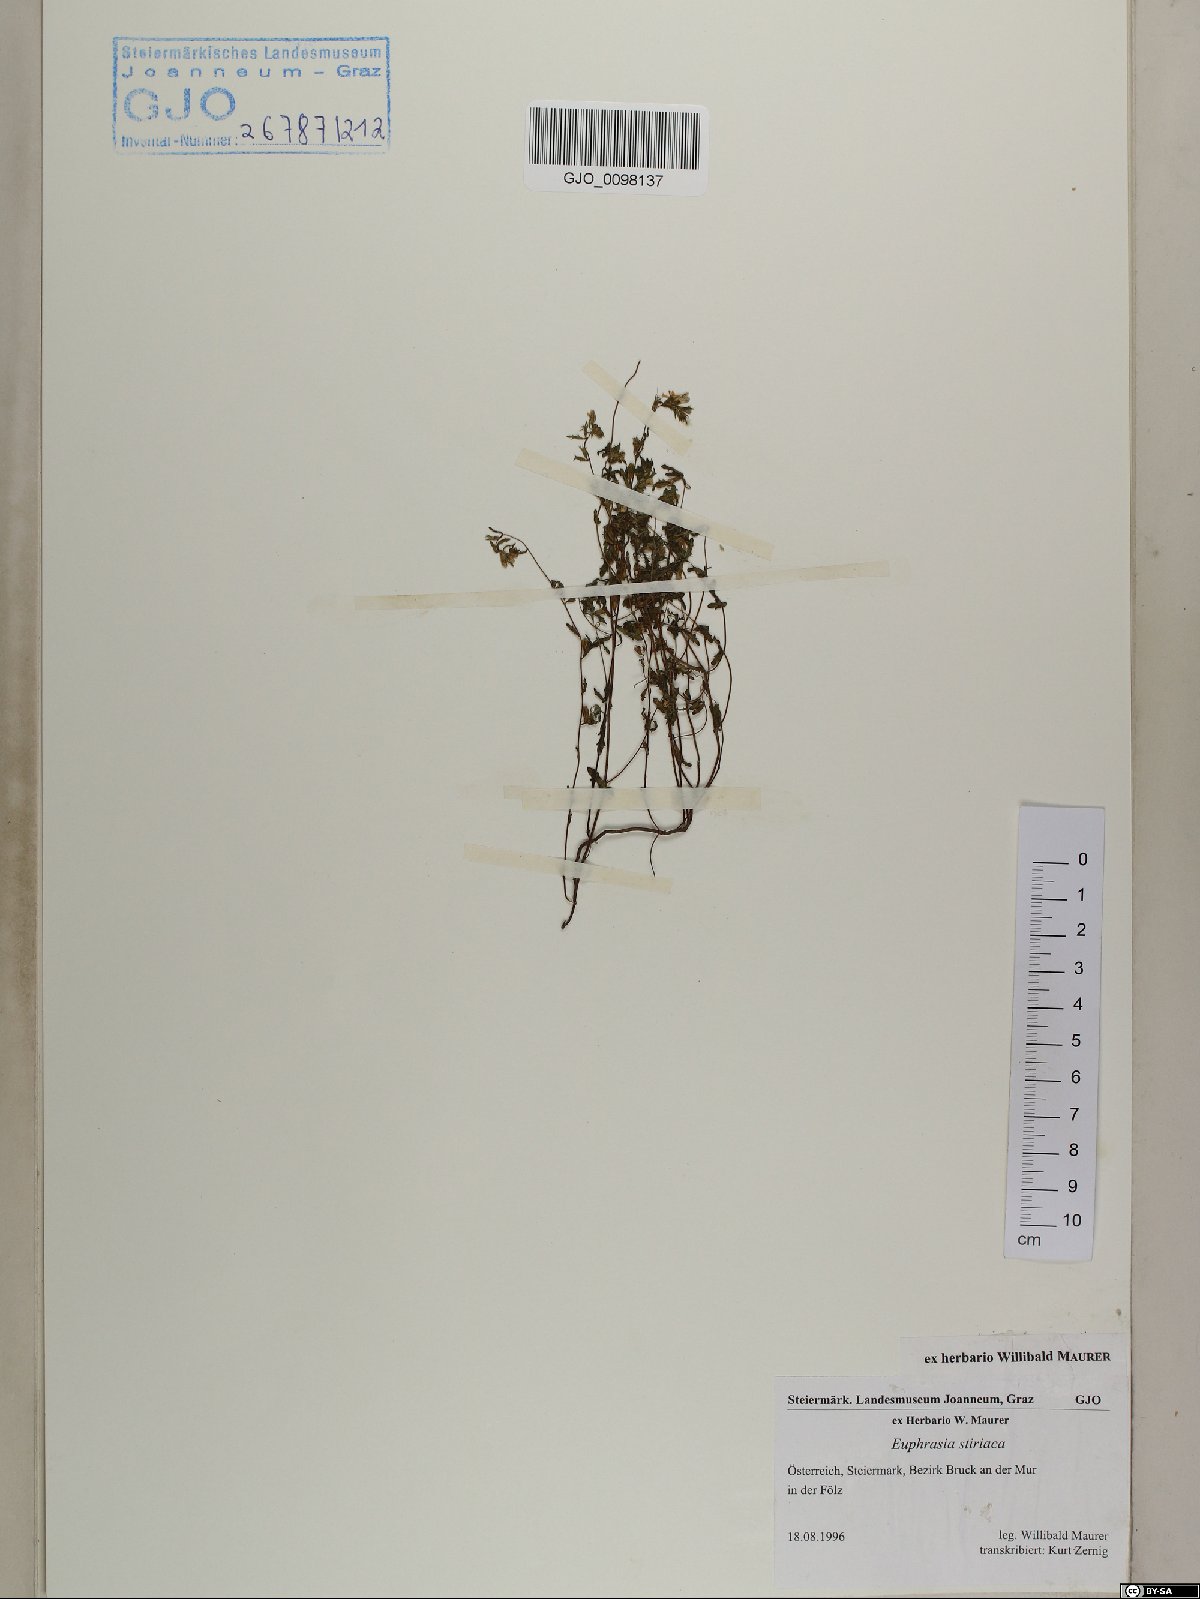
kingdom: Plantae
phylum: Tracheophyta
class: Magnoliopsida
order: Lamiales
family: Orobanchaceae
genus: Euphrasia
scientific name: Euphrasia cuspidata
